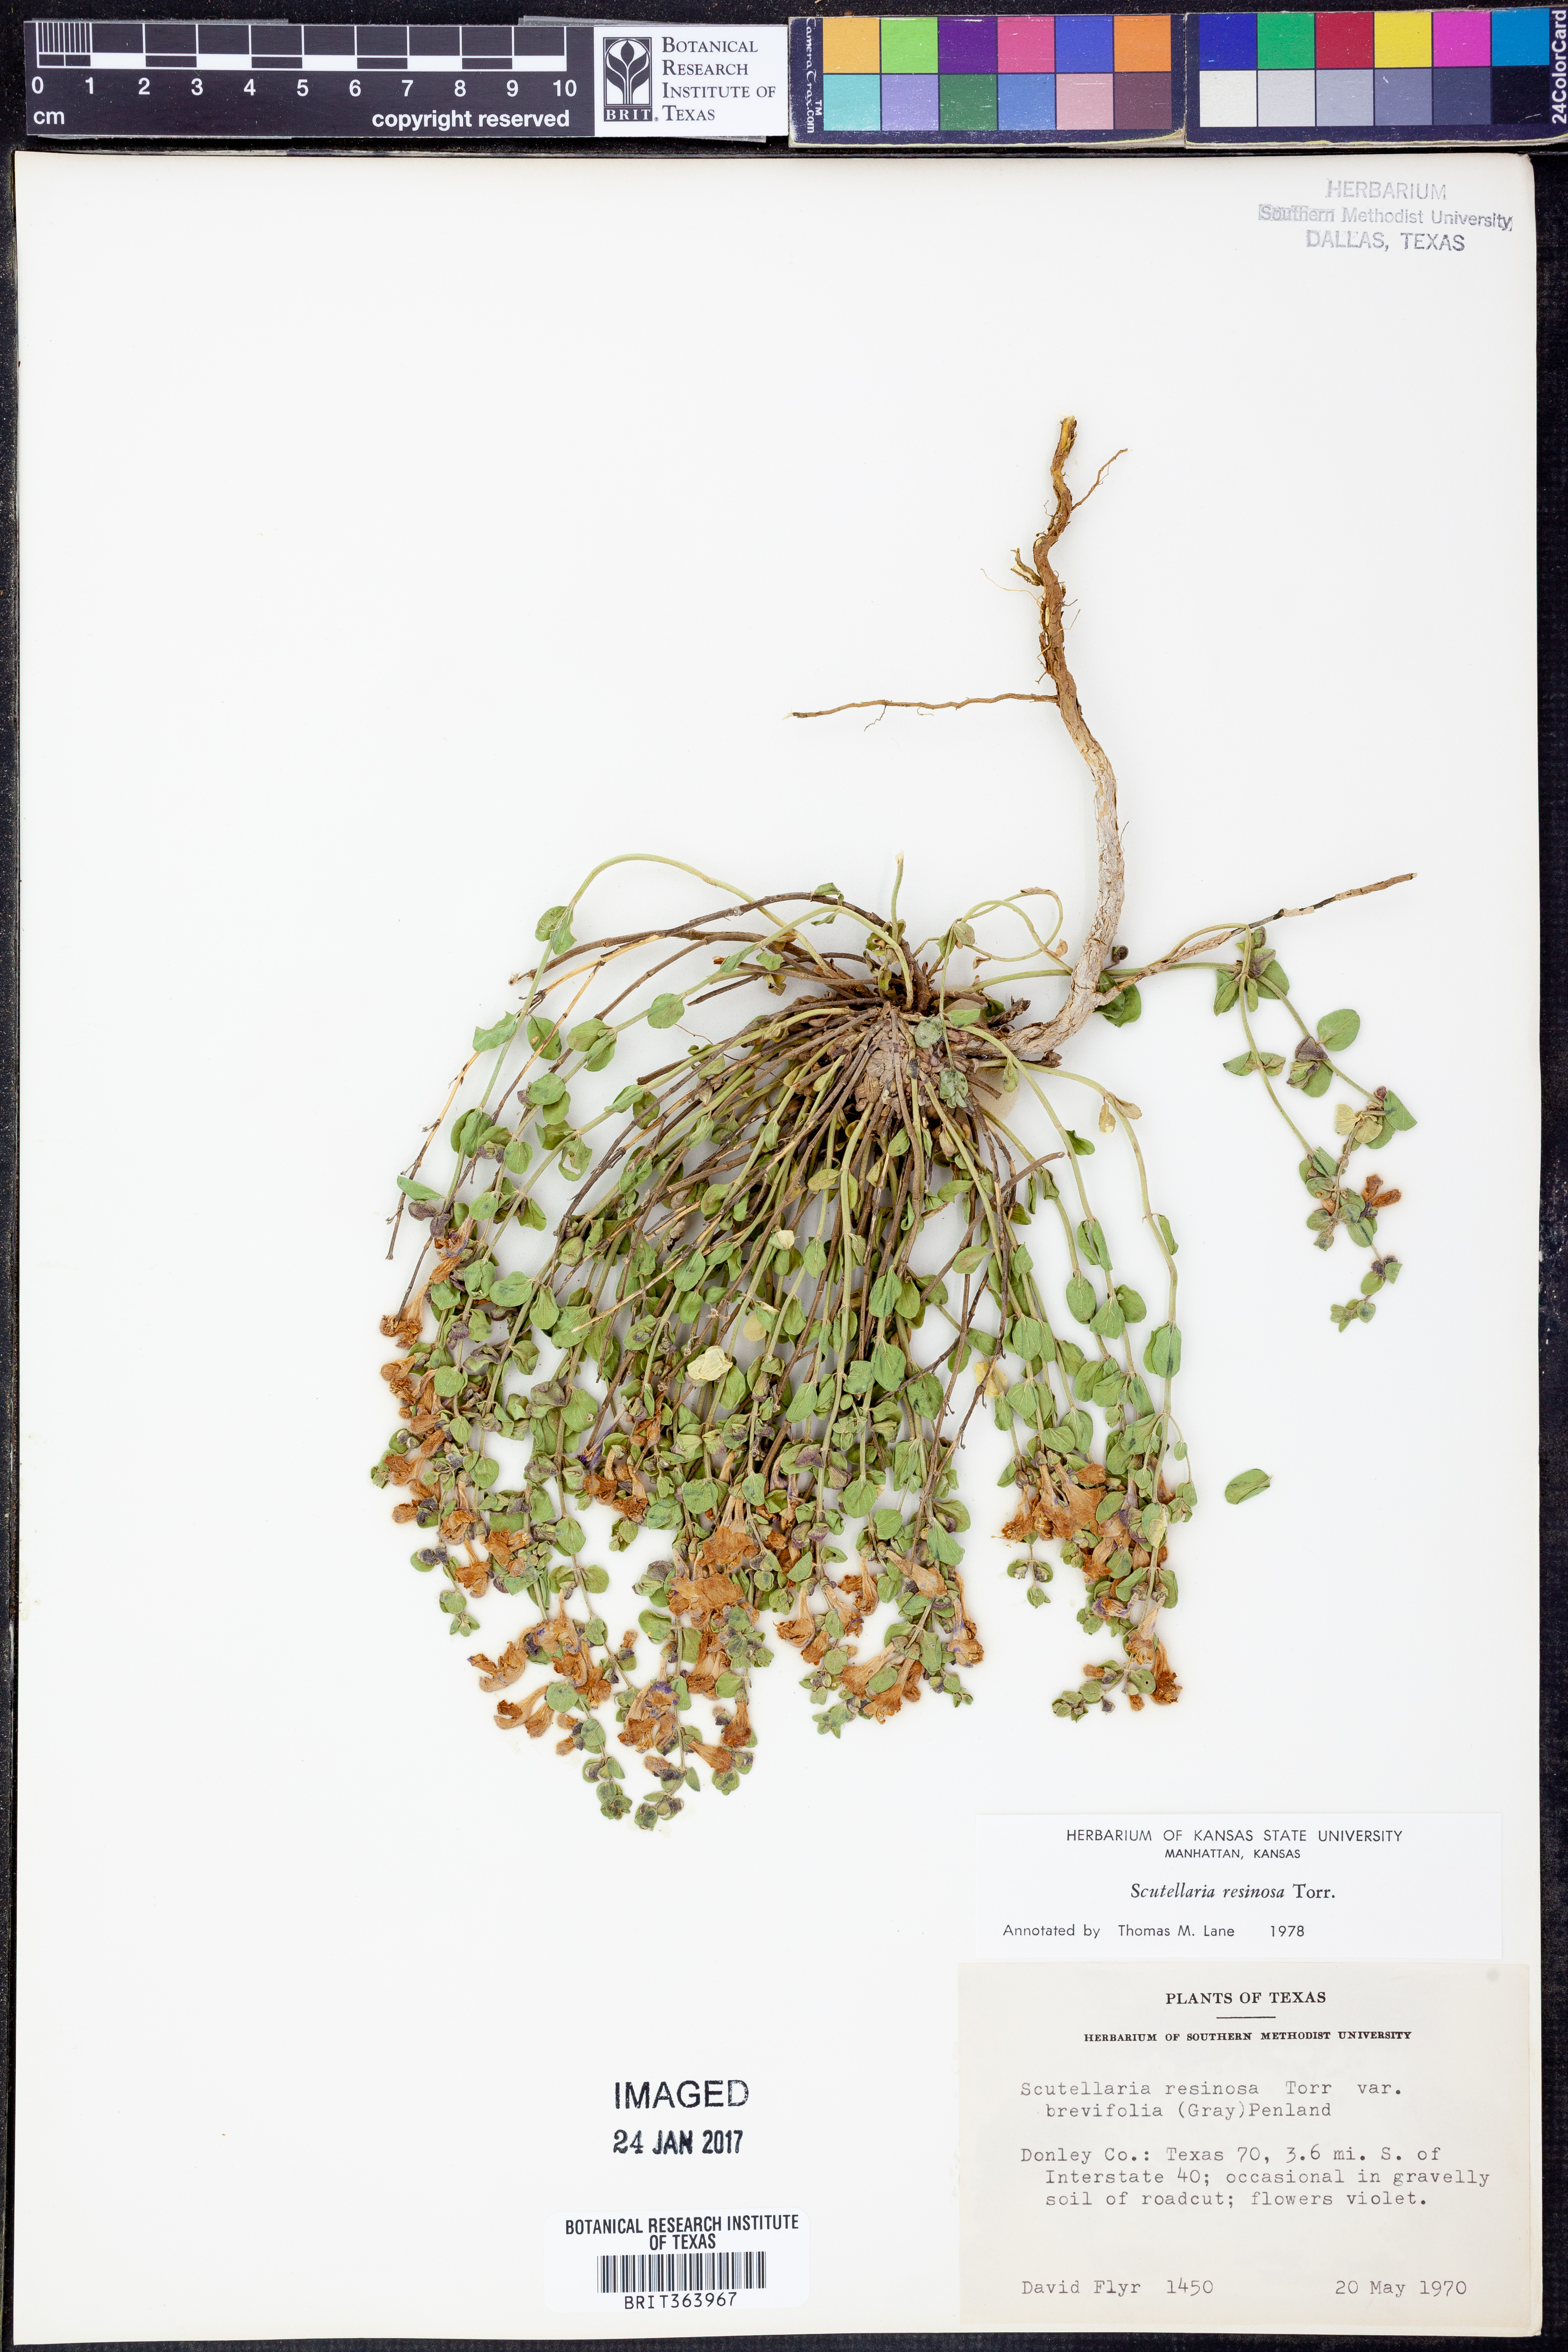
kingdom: Plantae
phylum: Tracheophyta
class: Magnoliopsida
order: Lamiales
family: Lamiaceae
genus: Scutellaria
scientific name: Scutellaria resinosa
